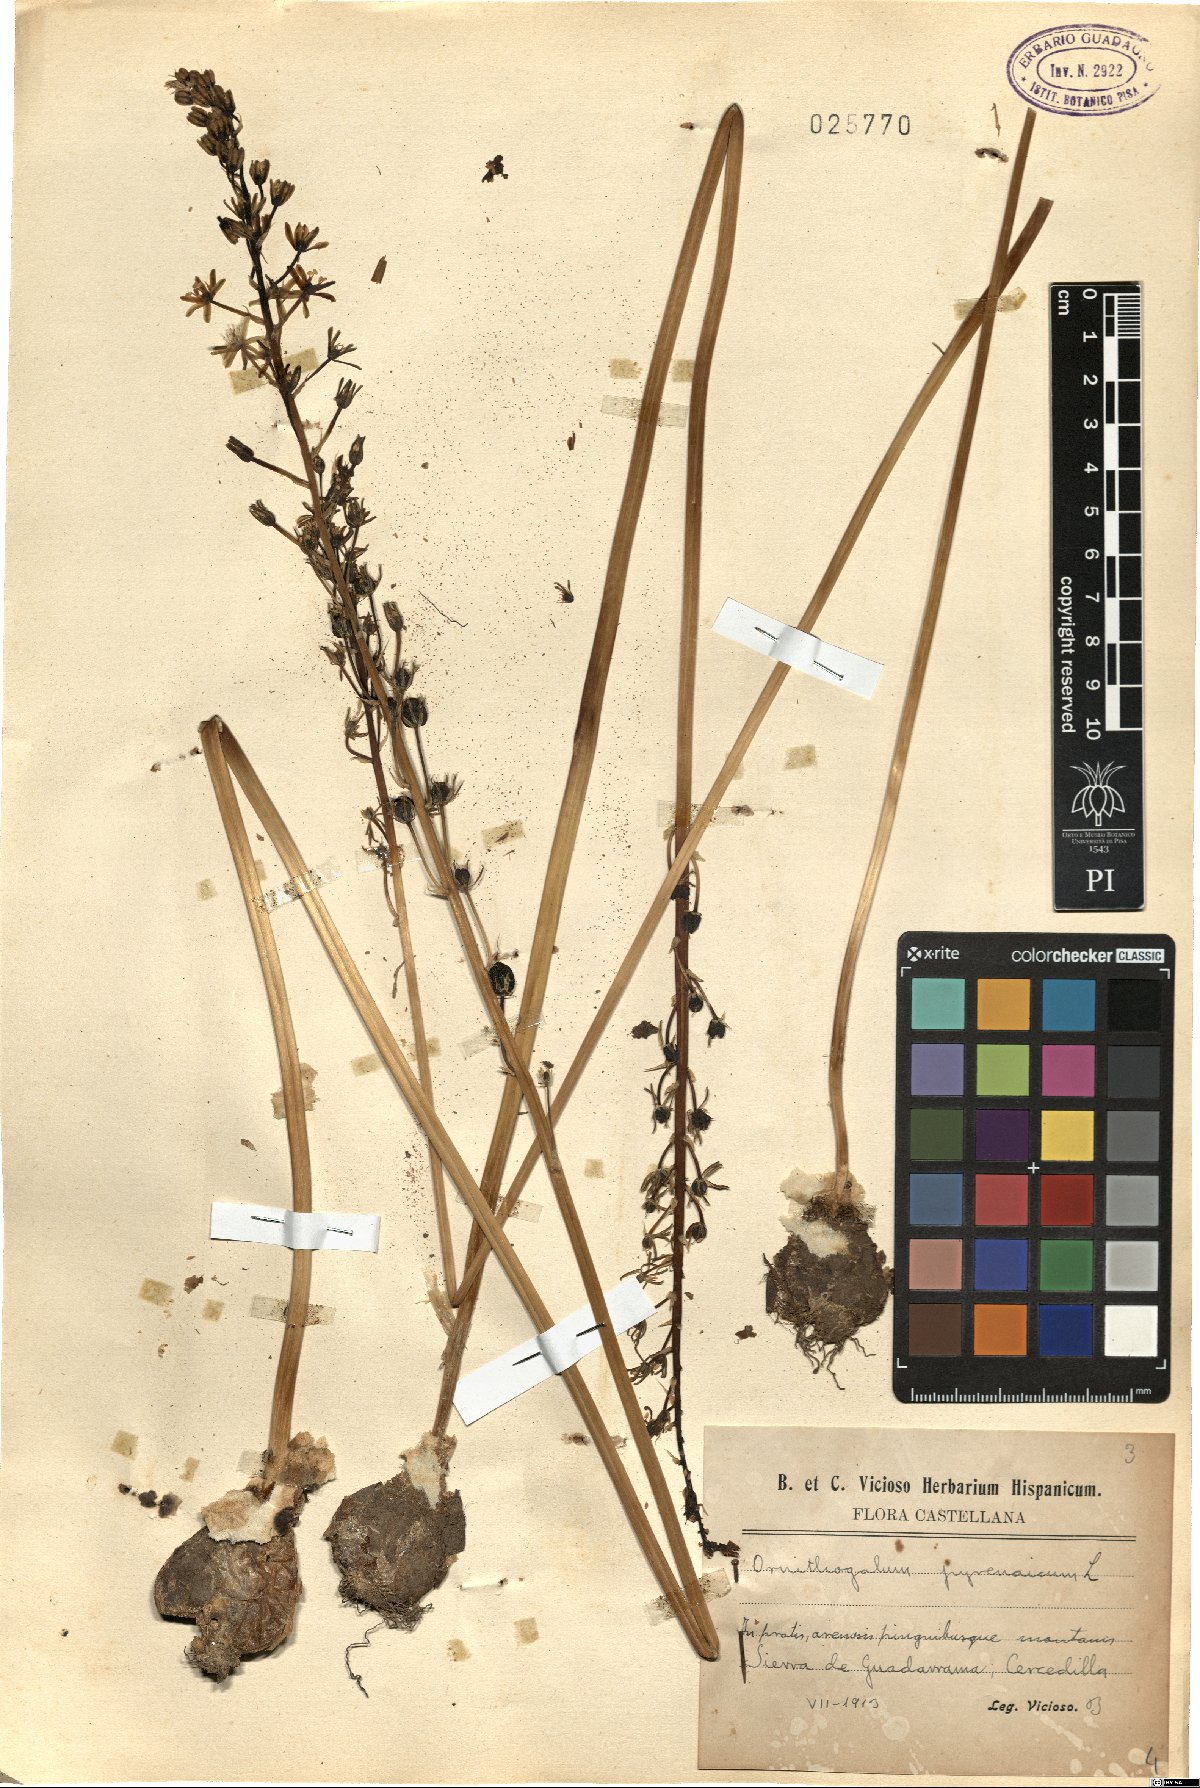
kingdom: Plantae
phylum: Tracheophyta
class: Liliopsida
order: Asparagales
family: Asparagaceae
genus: Ornithogalum
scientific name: Ornithogalum pyrenaicum
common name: Spiked star-of-bethlehem
